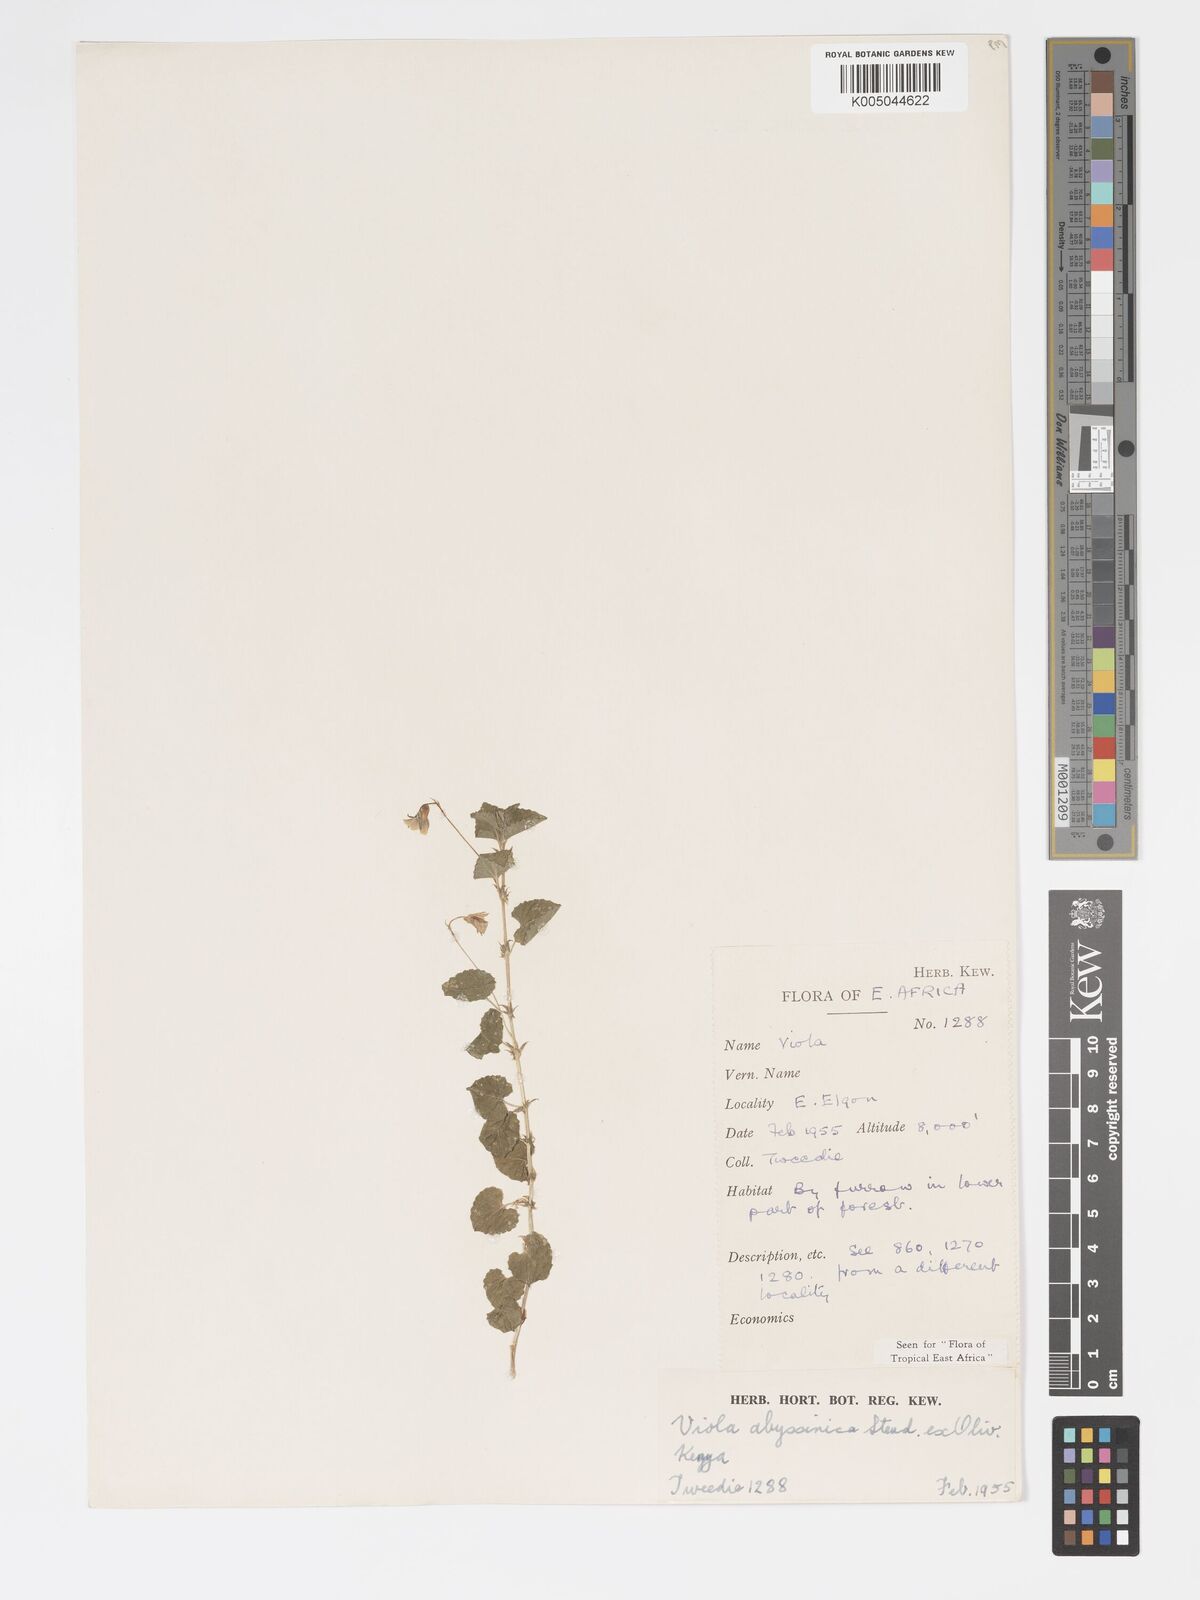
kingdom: Plantae
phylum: Tracheophyta
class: Magnoliopsida
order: Malpighiales
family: Violaceae
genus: Viola
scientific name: Viola abyssinica
